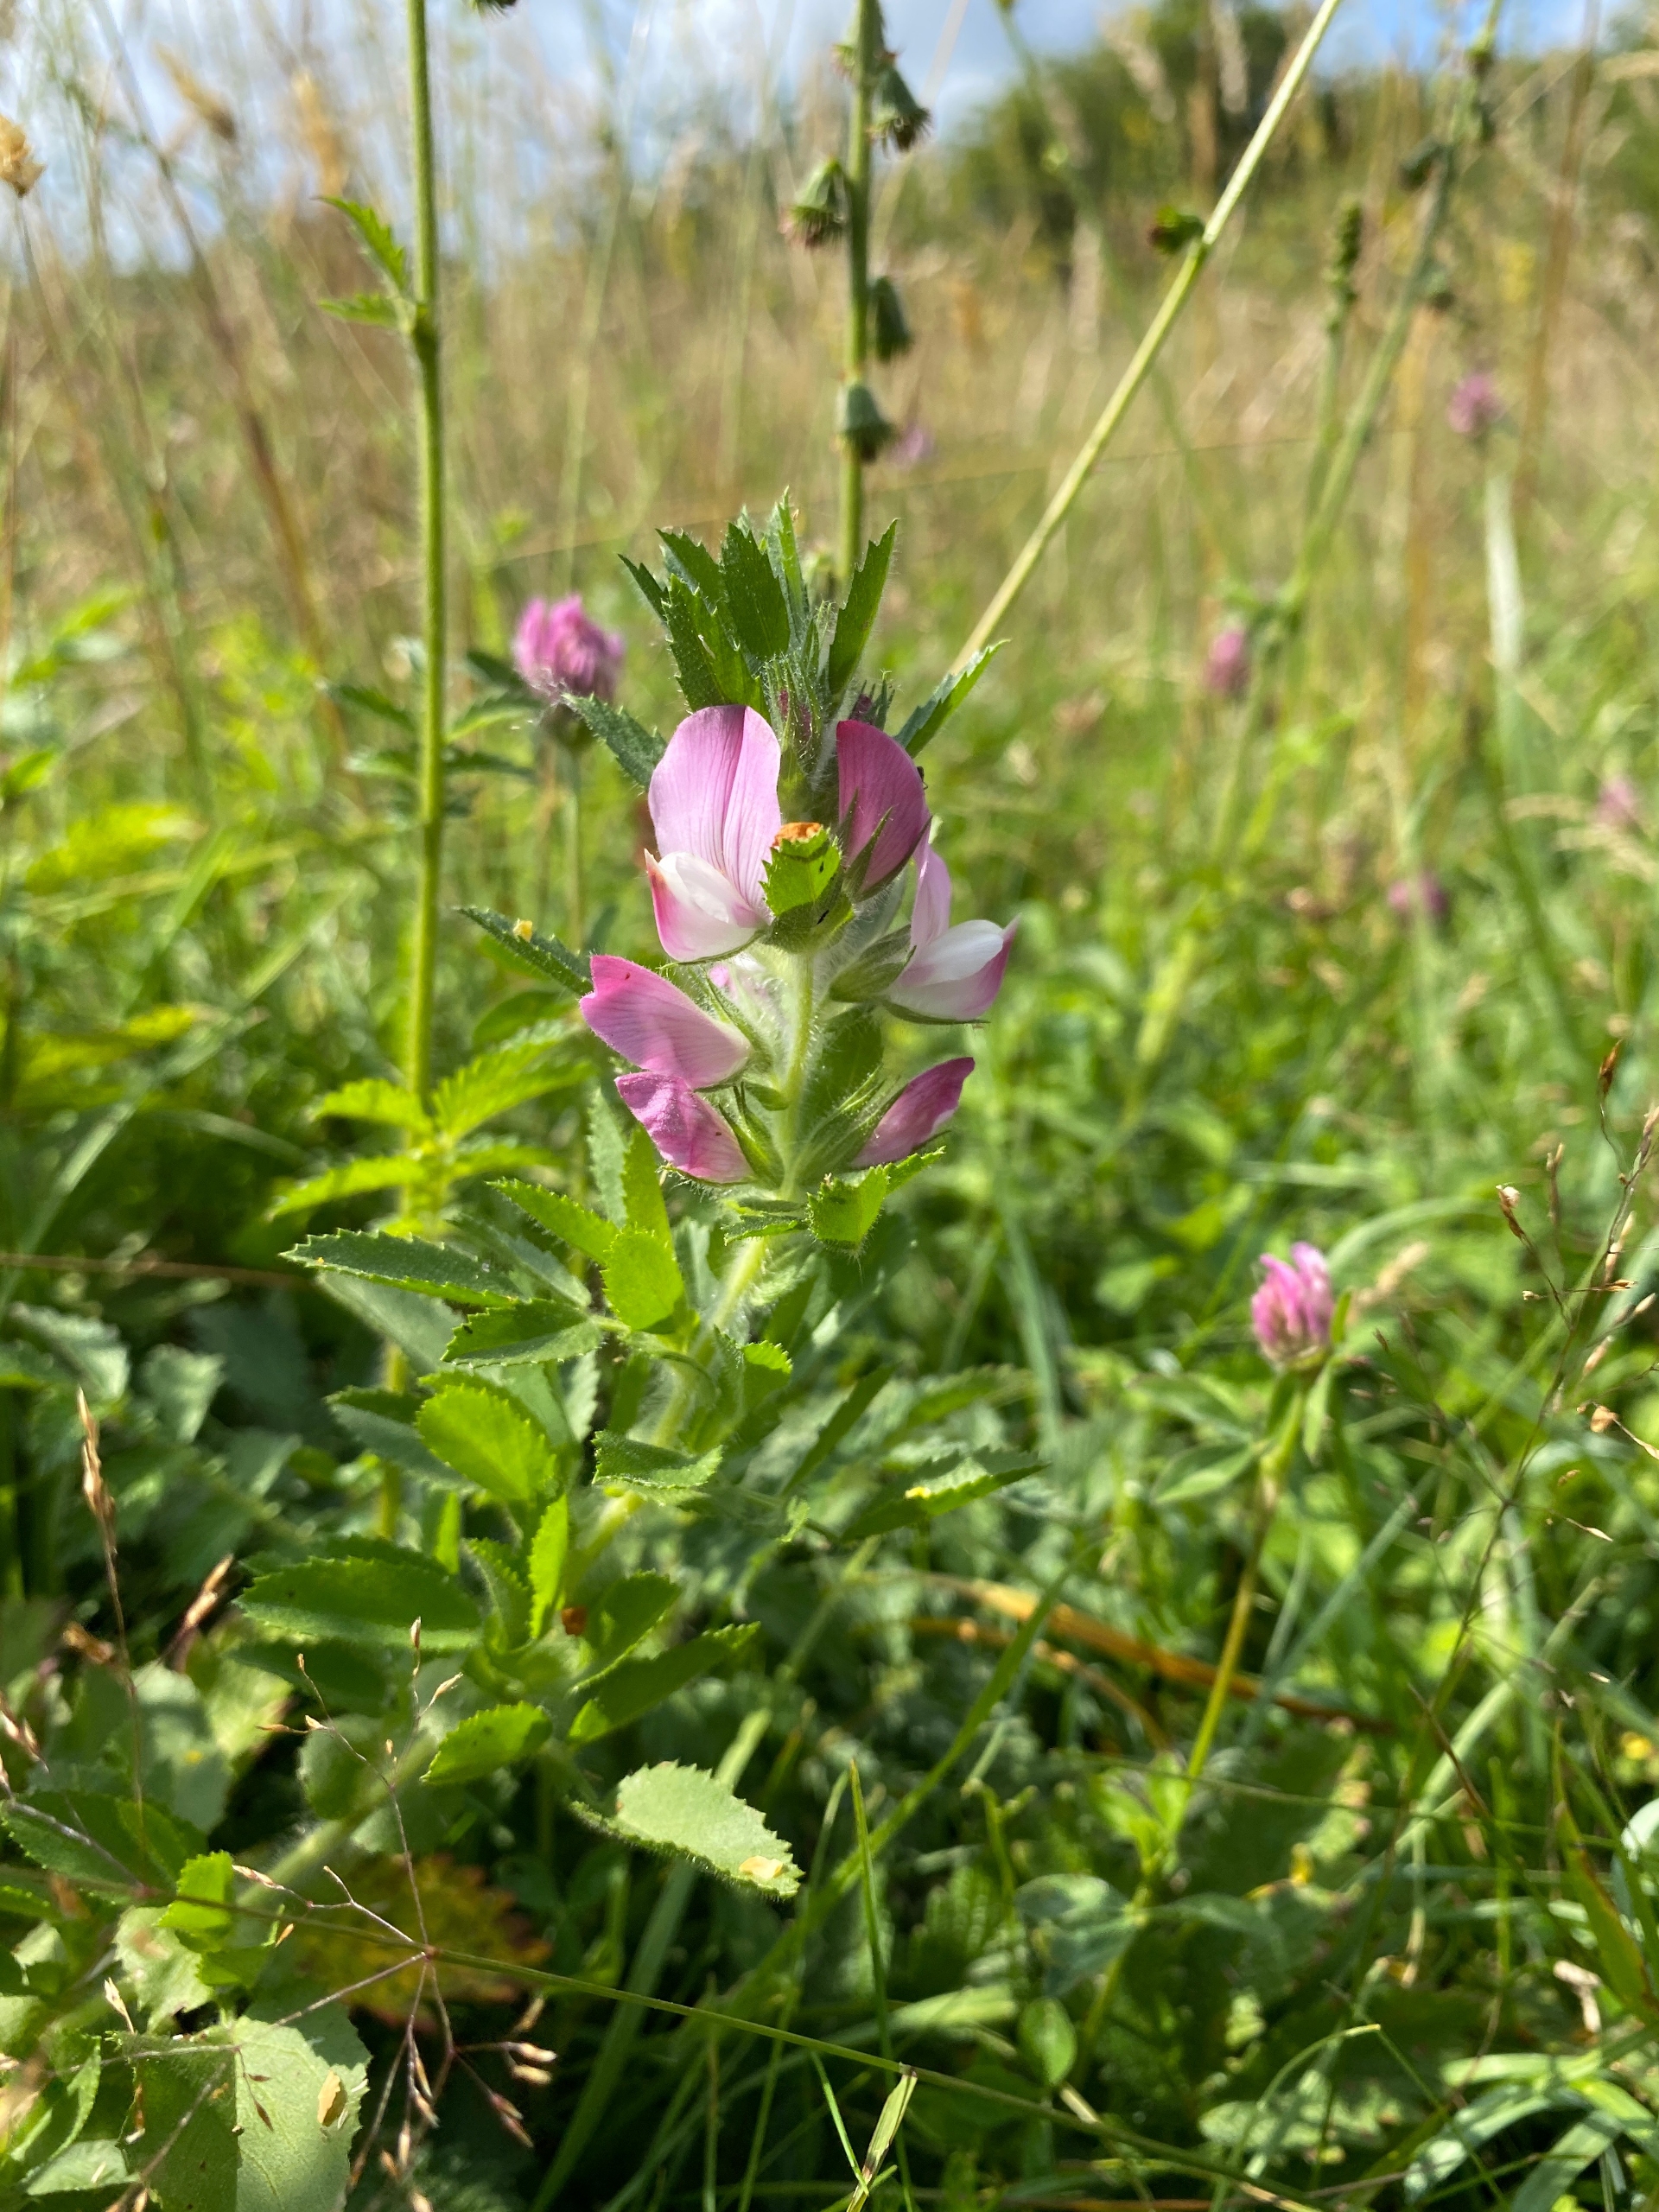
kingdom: Plantae
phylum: Tracheophyta
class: Magnoliopsida
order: Fabales
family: Fabaceae
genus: Ononis
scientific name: Ononis arvensis
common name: Stinkende krageklo
